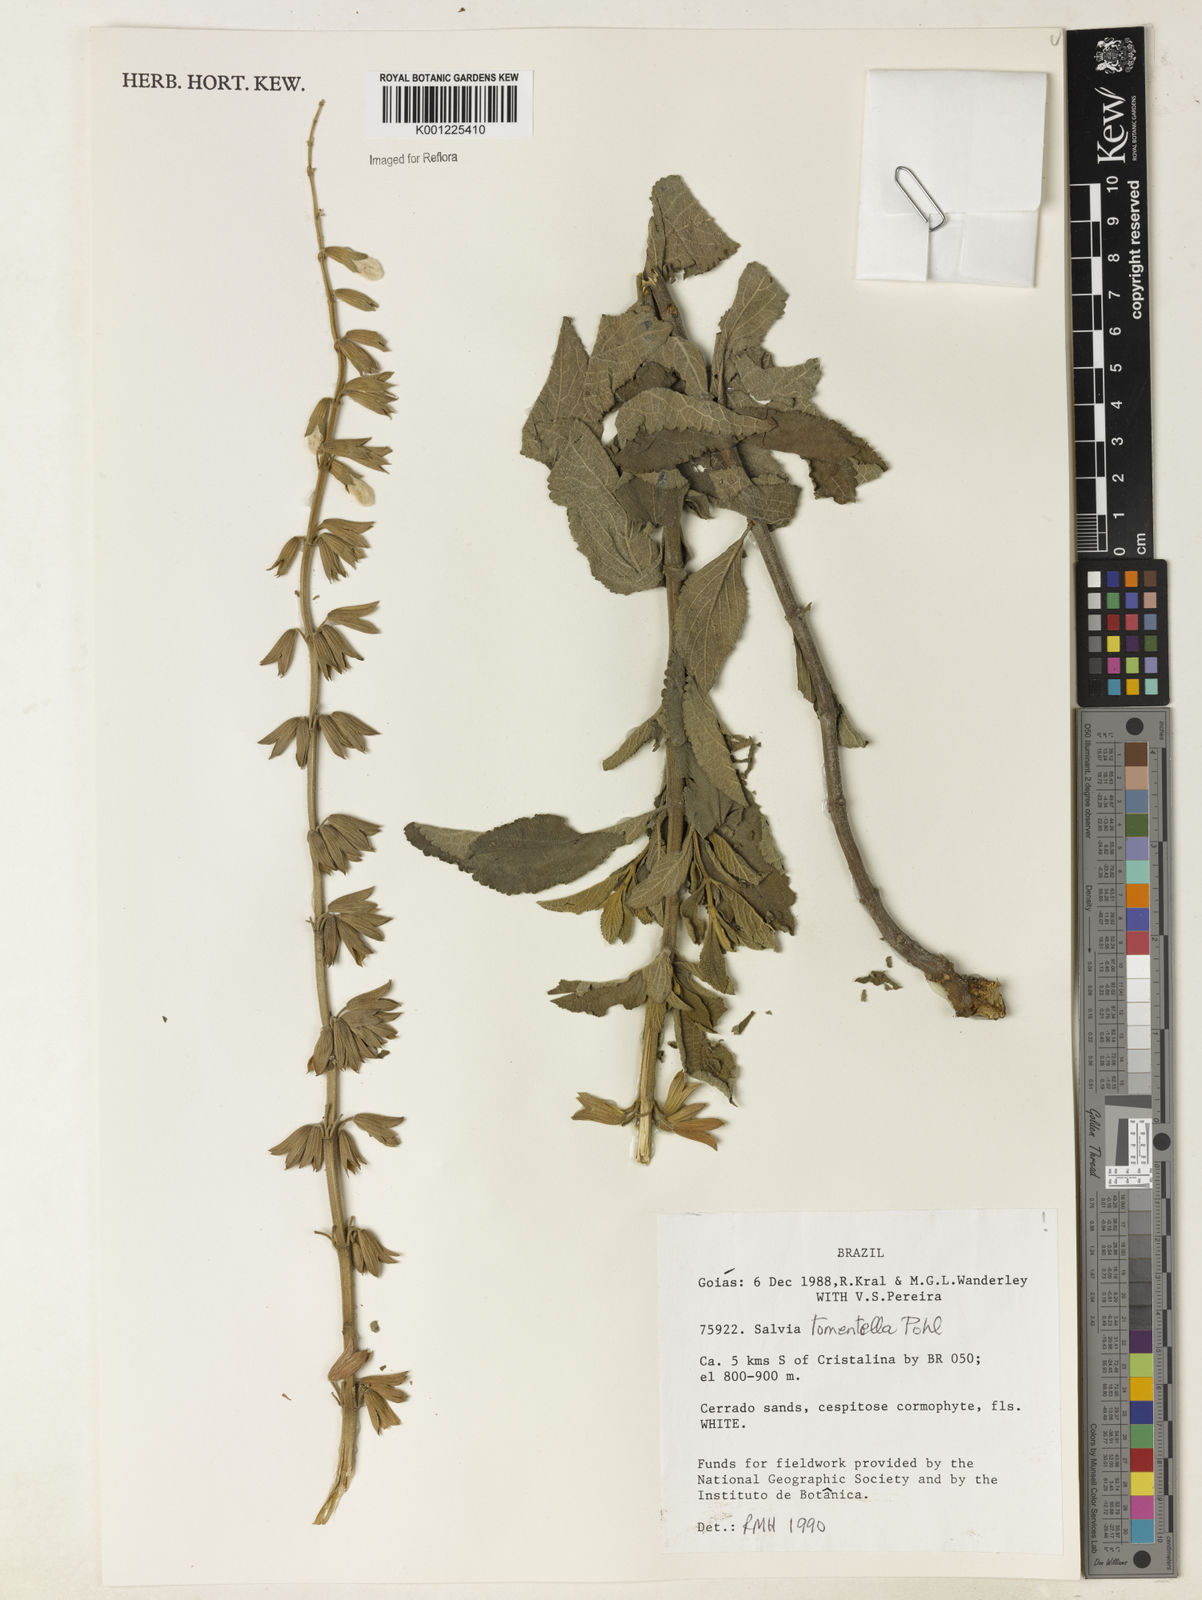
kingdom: Plantae
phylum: Tracheophyta
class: Magnoliopsida
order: Lamiales
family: Lamiaceae
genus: Salvia
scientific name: Salvia tomentella
